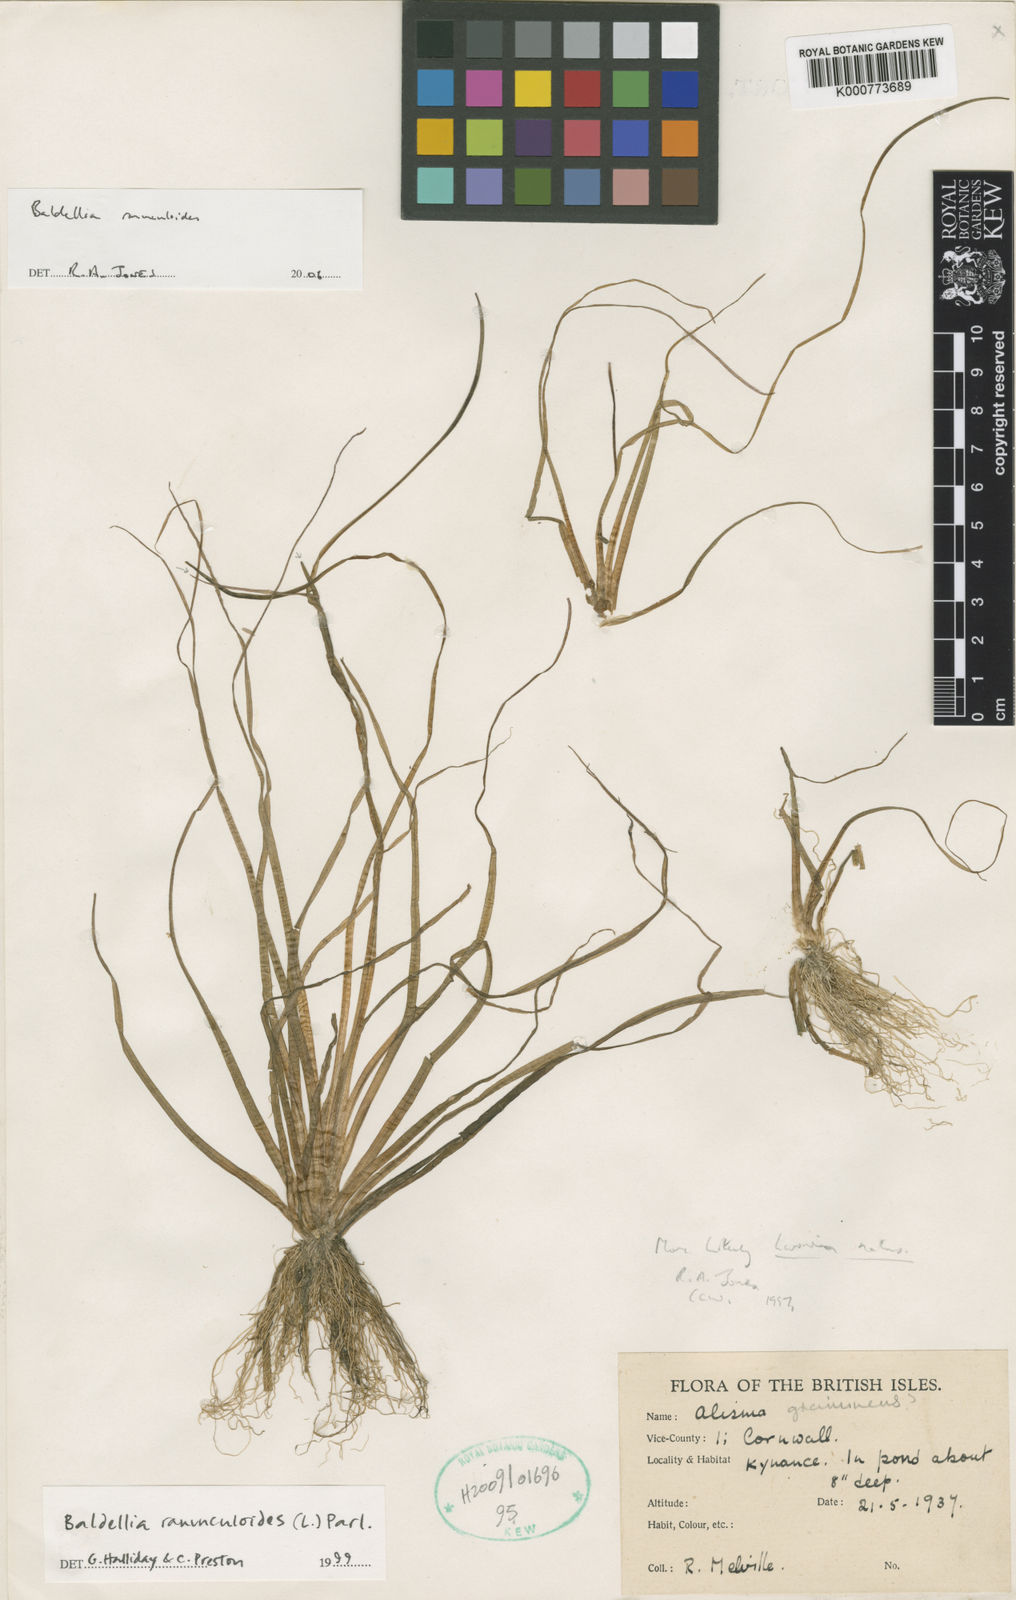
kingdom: Plantae
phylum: Tracheophyta
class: Liliopsida
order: Alismatales
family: Alismataceae
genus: Baldellia
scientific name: Baldellia ranunculoides
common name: Lesser water-plantain
